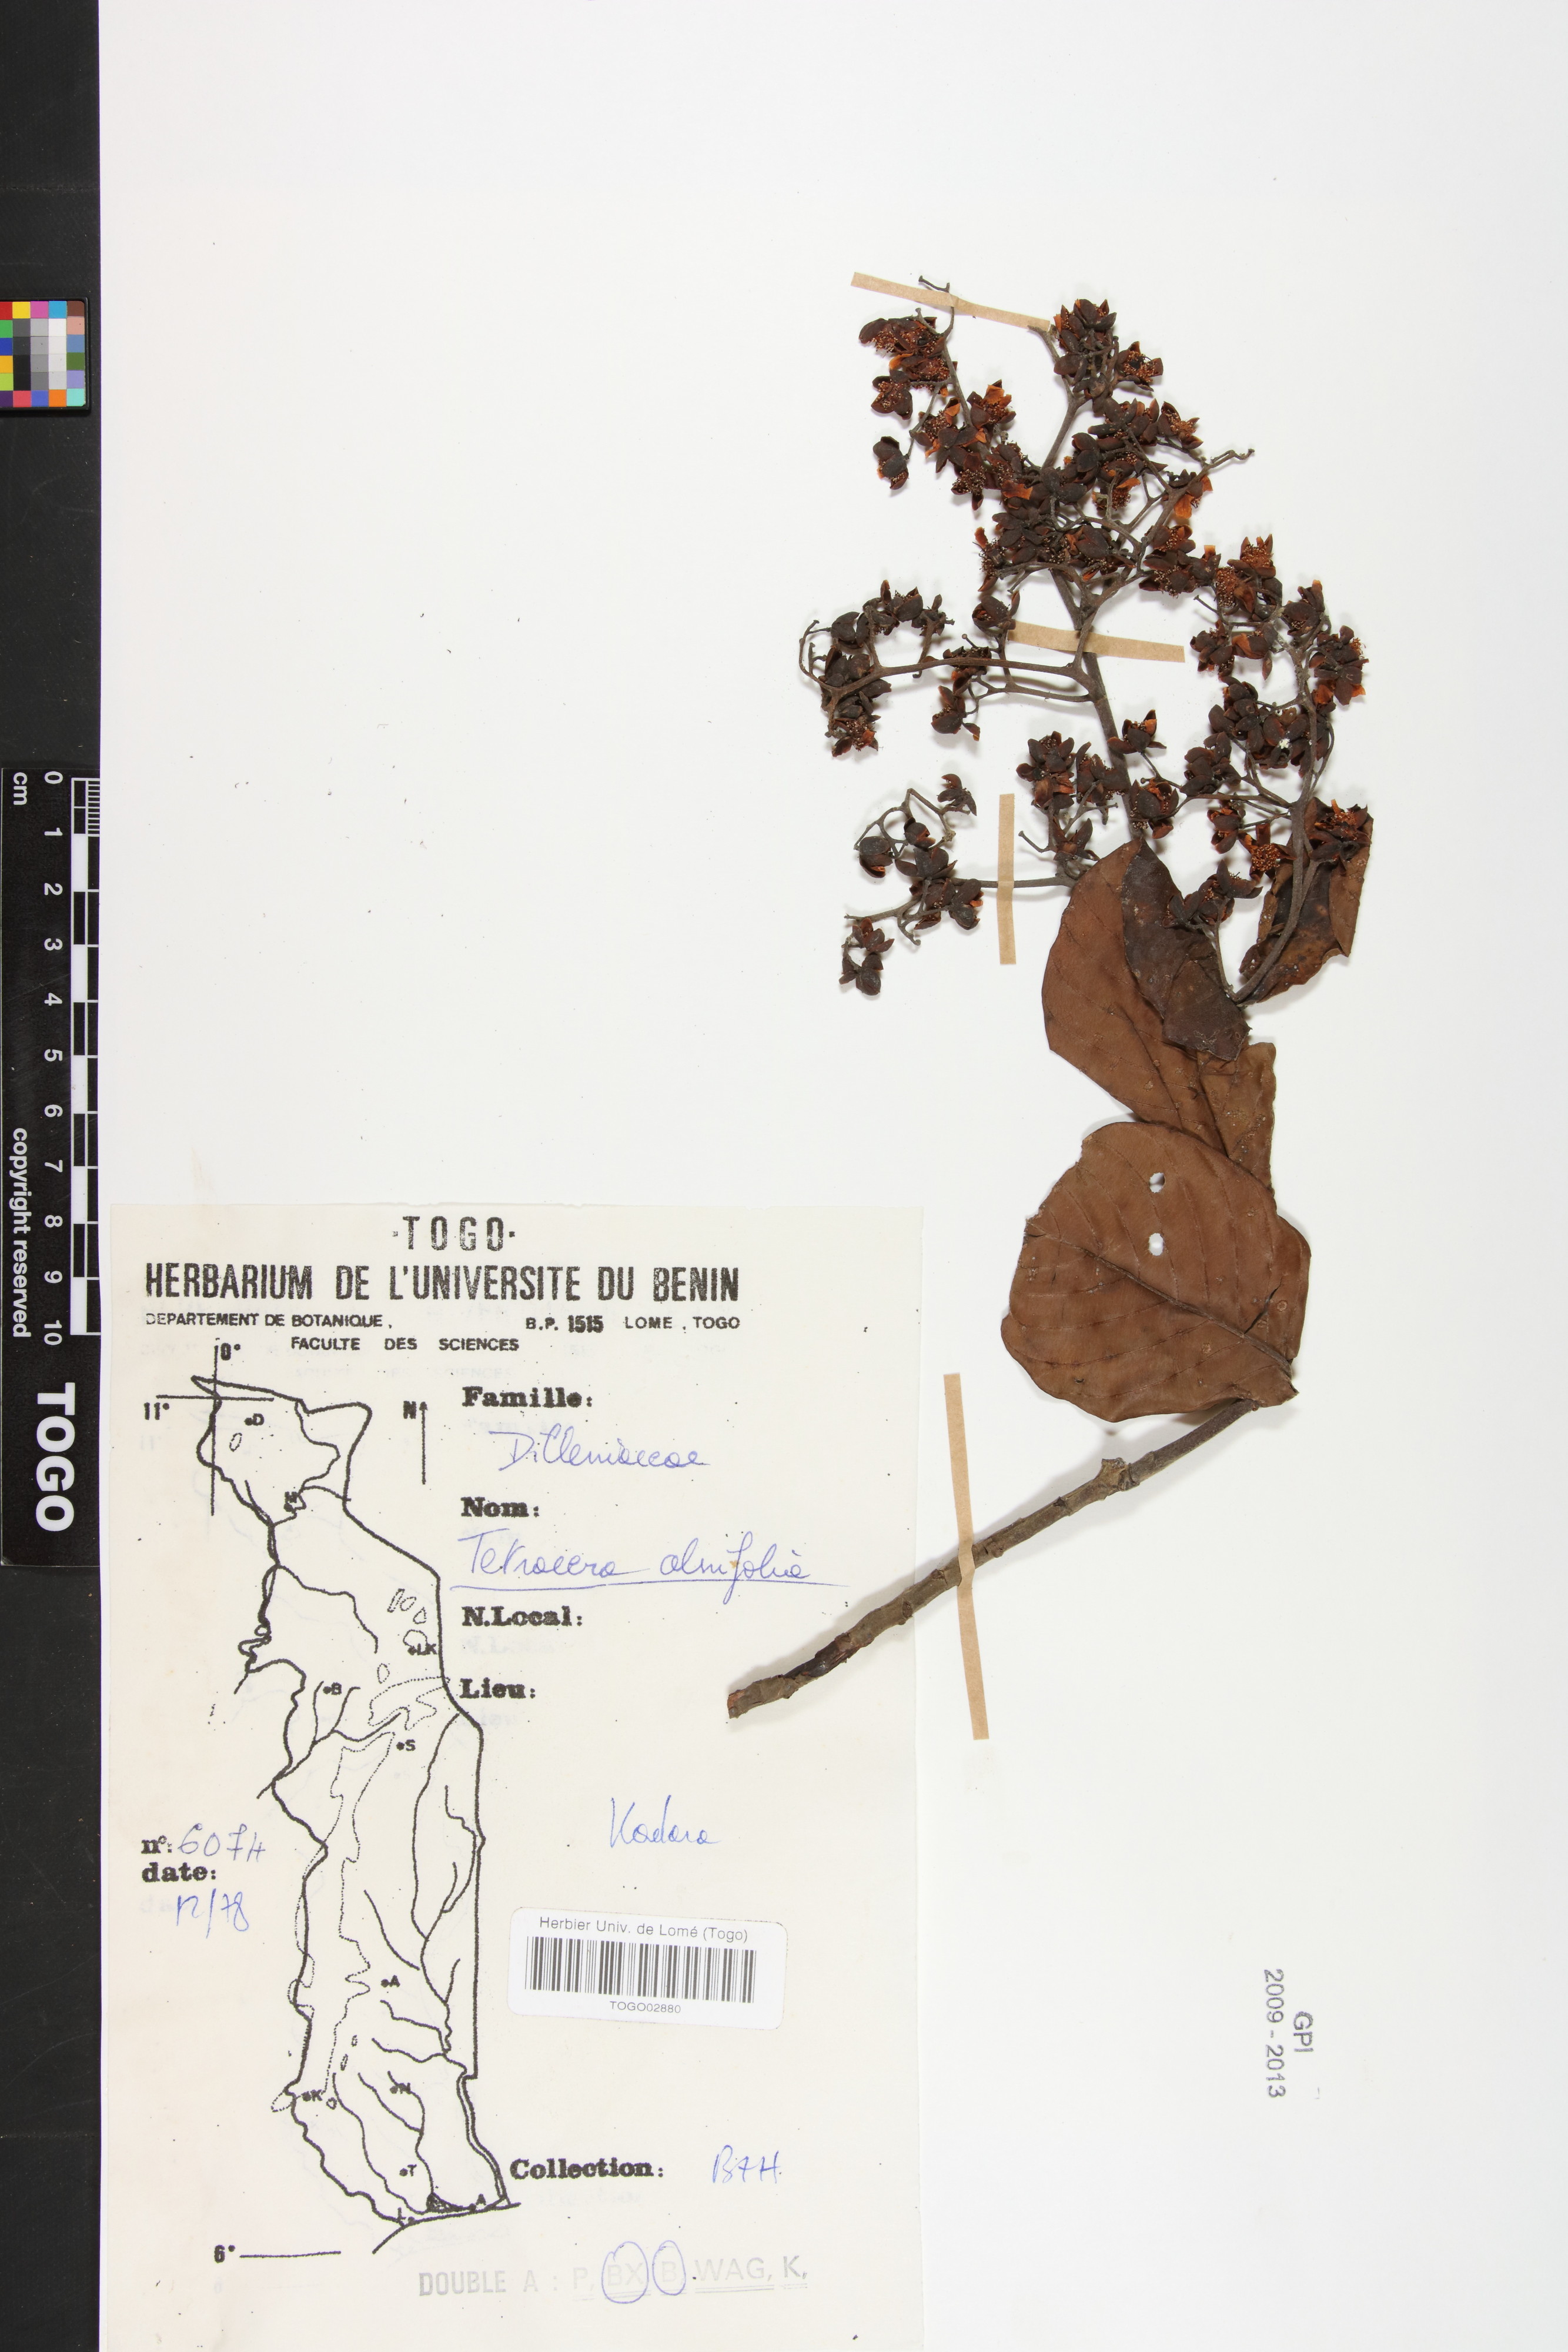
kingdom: Plantae
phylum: Tracheophyta
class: Magnoliopsida
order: Dilleniales
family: Dilleniaceae
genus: Tetracera
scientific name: Tetracera alnifolia
